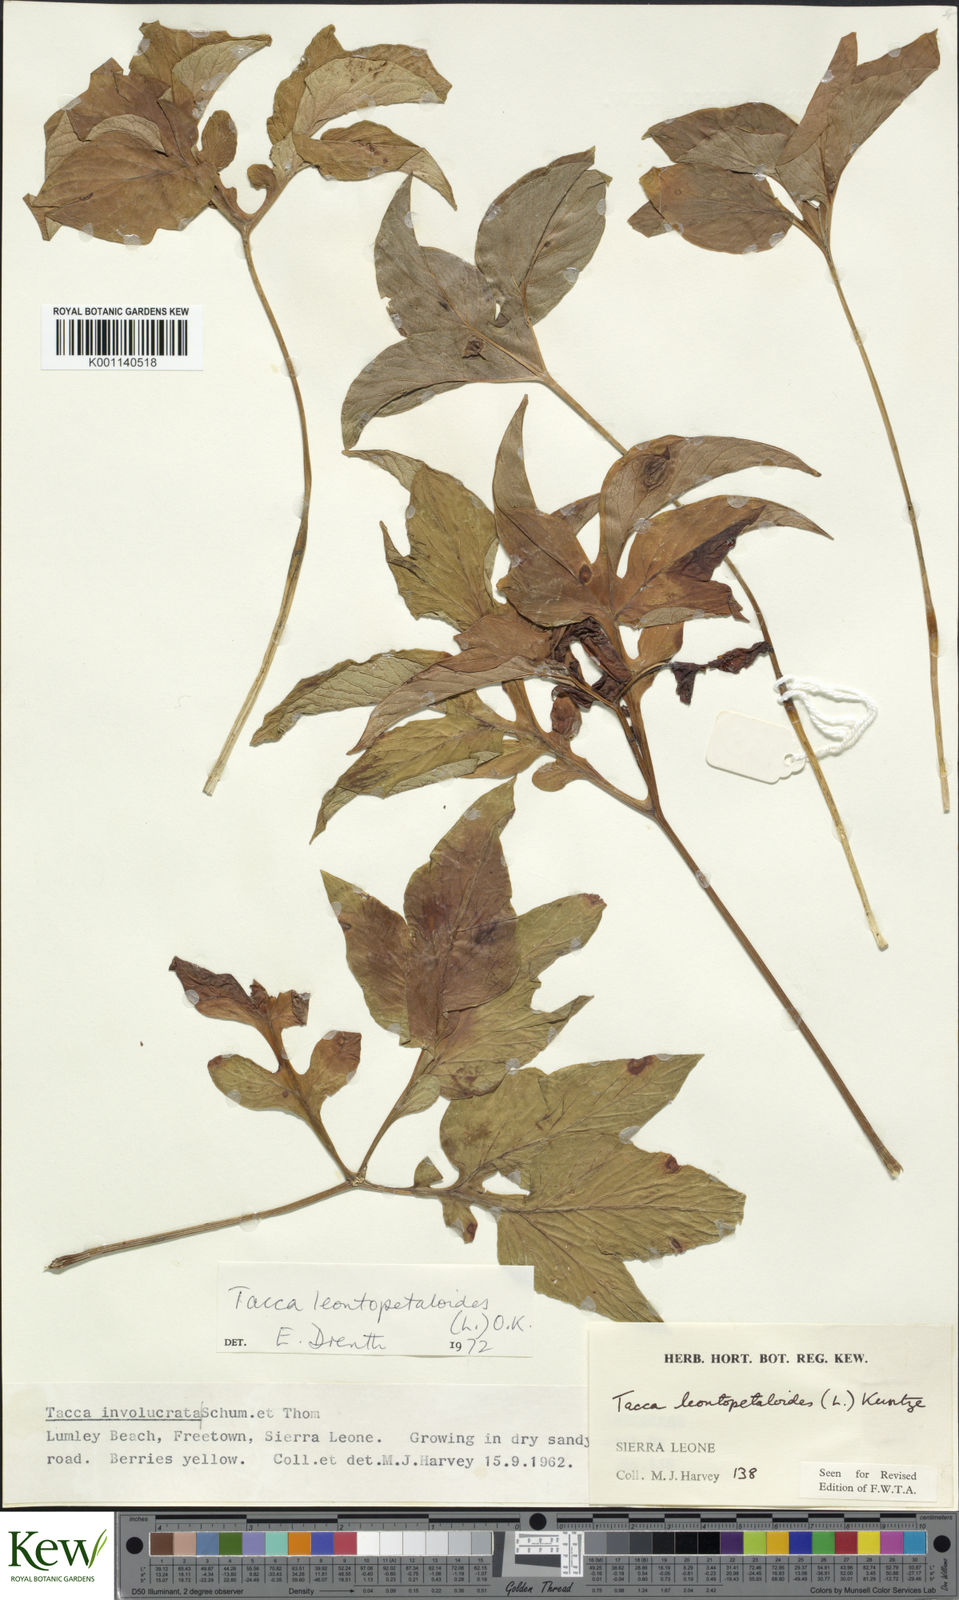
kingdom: Plantae
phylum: Tracheophyta
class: Liliopsida
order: Dioscoreales
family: Dioscoreaceae
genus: Tacca
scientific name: Tacca leontopetaloides
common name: Arrowroot
